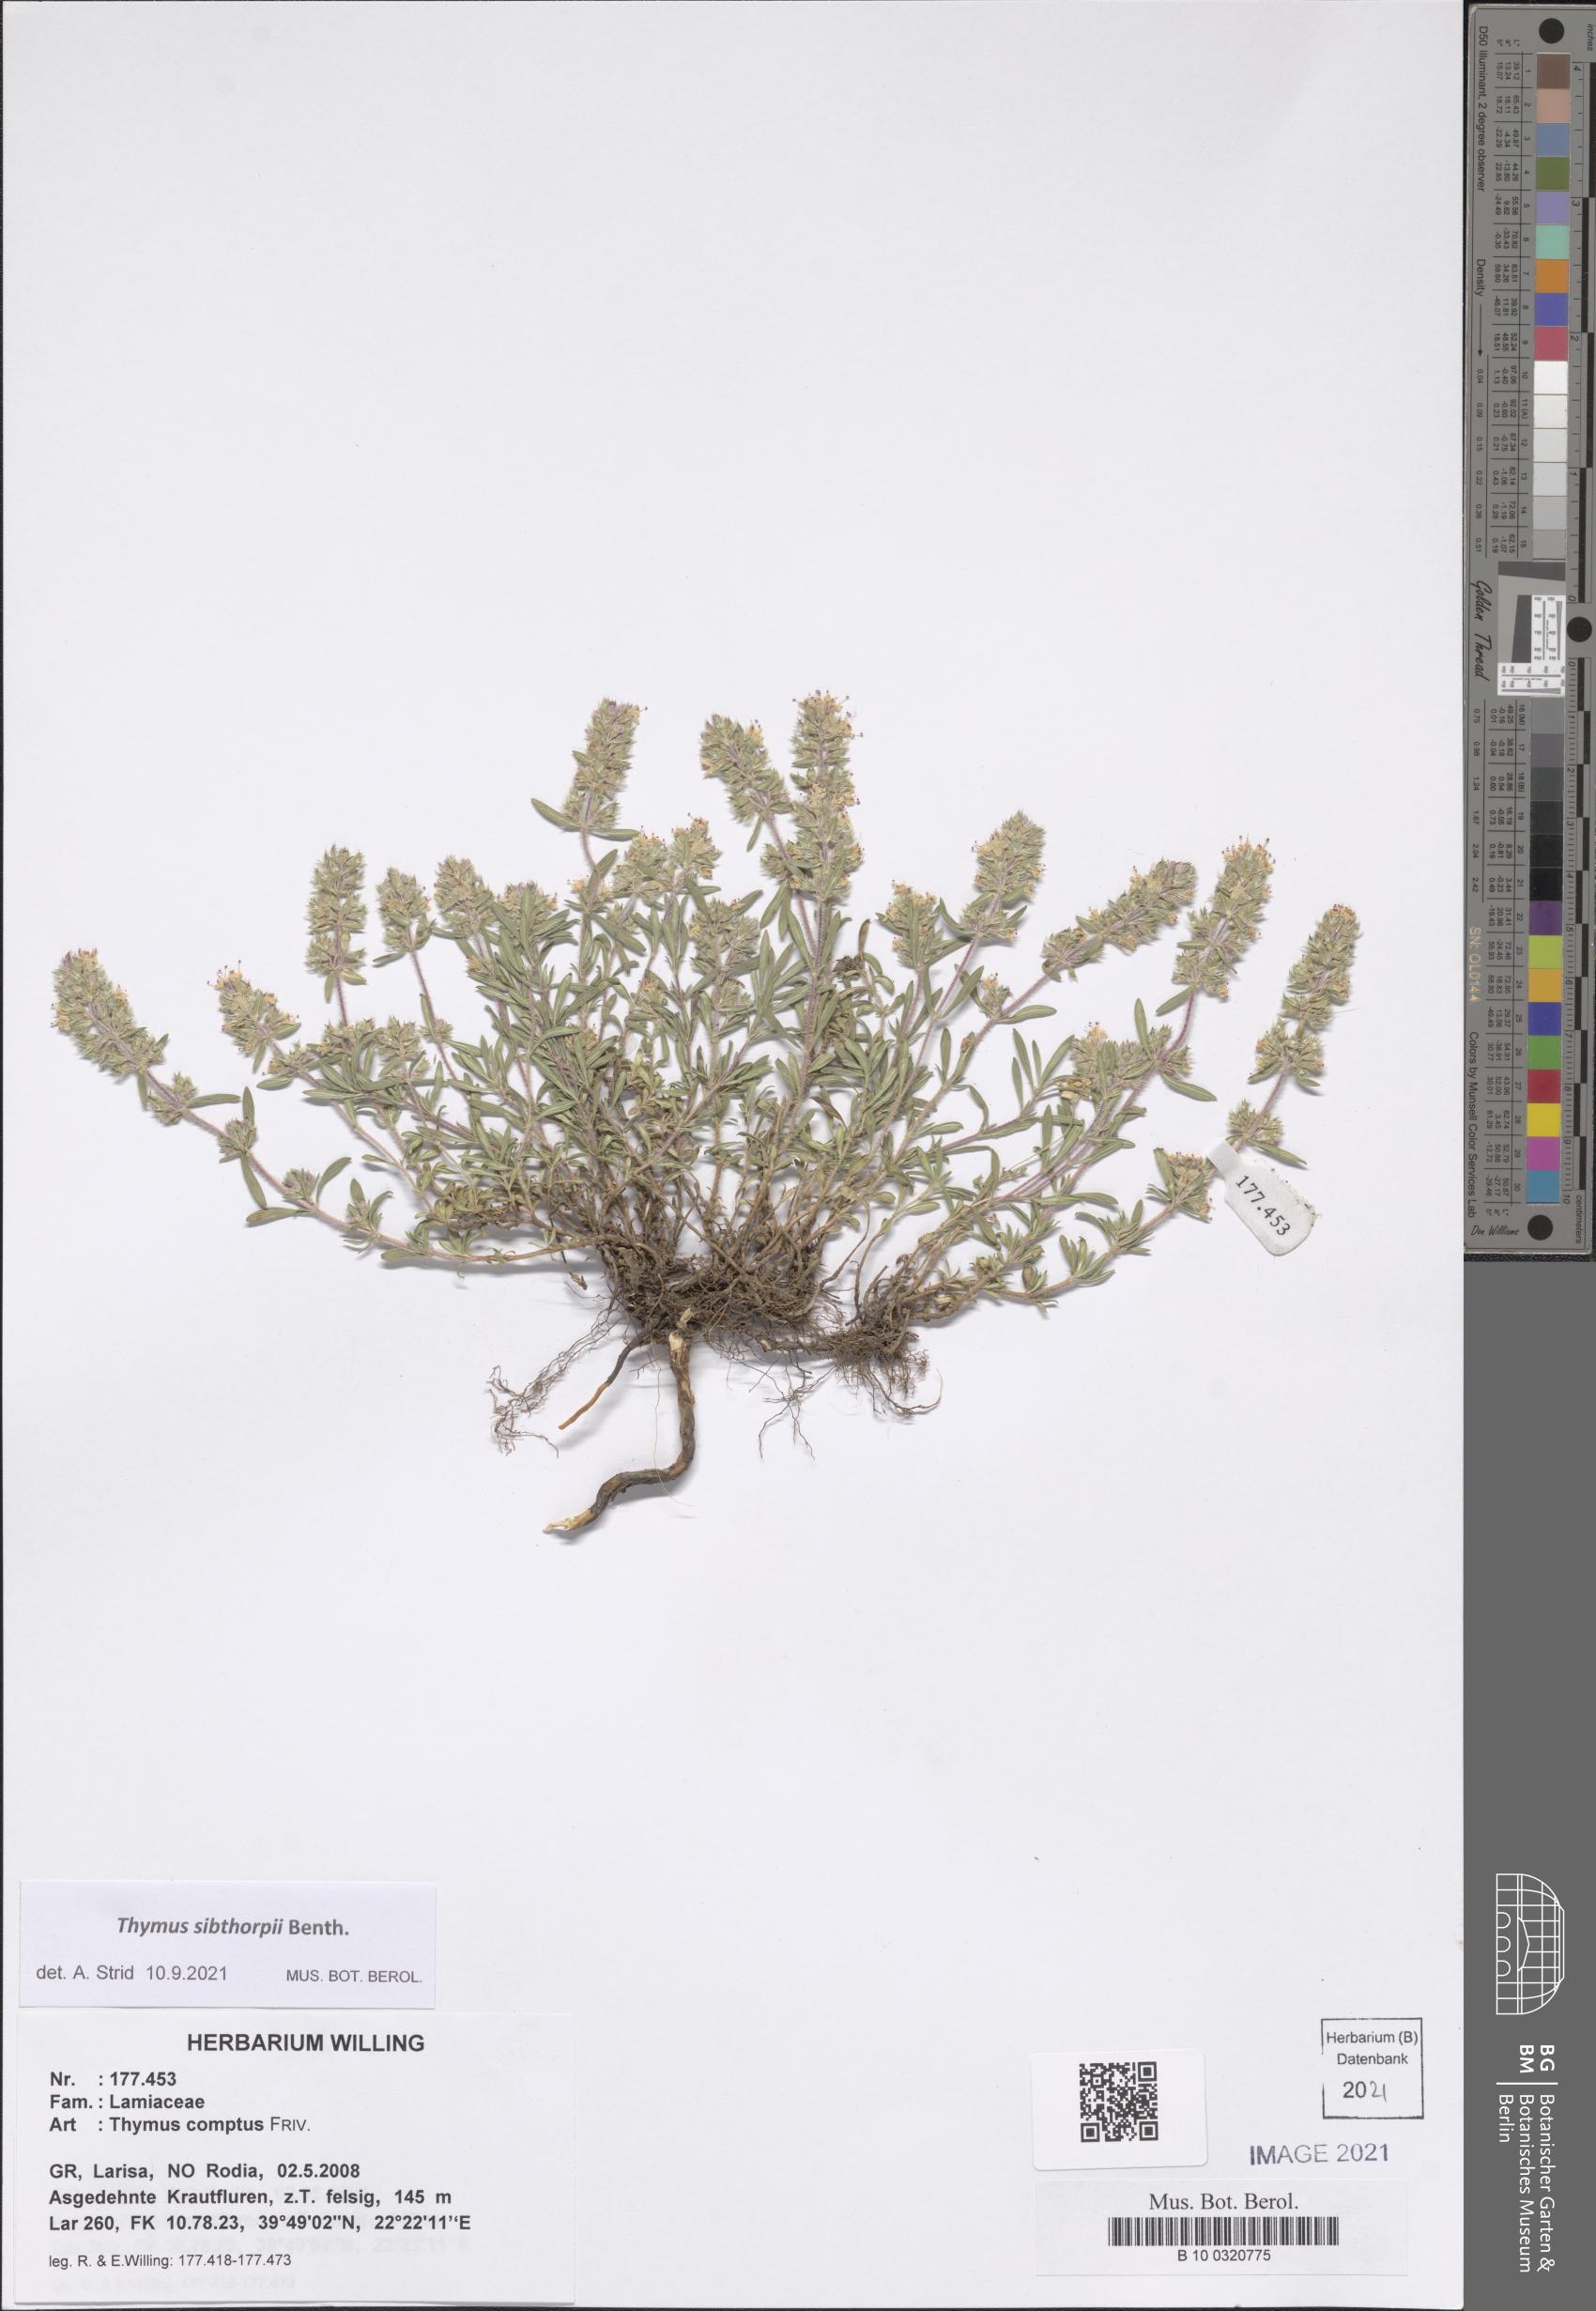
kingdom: Plantae
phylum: Tracheophyta
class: Magnoliopsida
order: Lamiales
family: Lamiaceae
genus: Thymus
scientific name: Thymus sibthorpii
